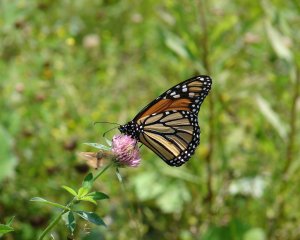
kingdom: Animalia
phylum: Arthropoda
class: Insecta
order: Lepidoptera
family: Nymphalidae
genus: Danaus
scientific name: Danaus plexippus
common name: Monarch
